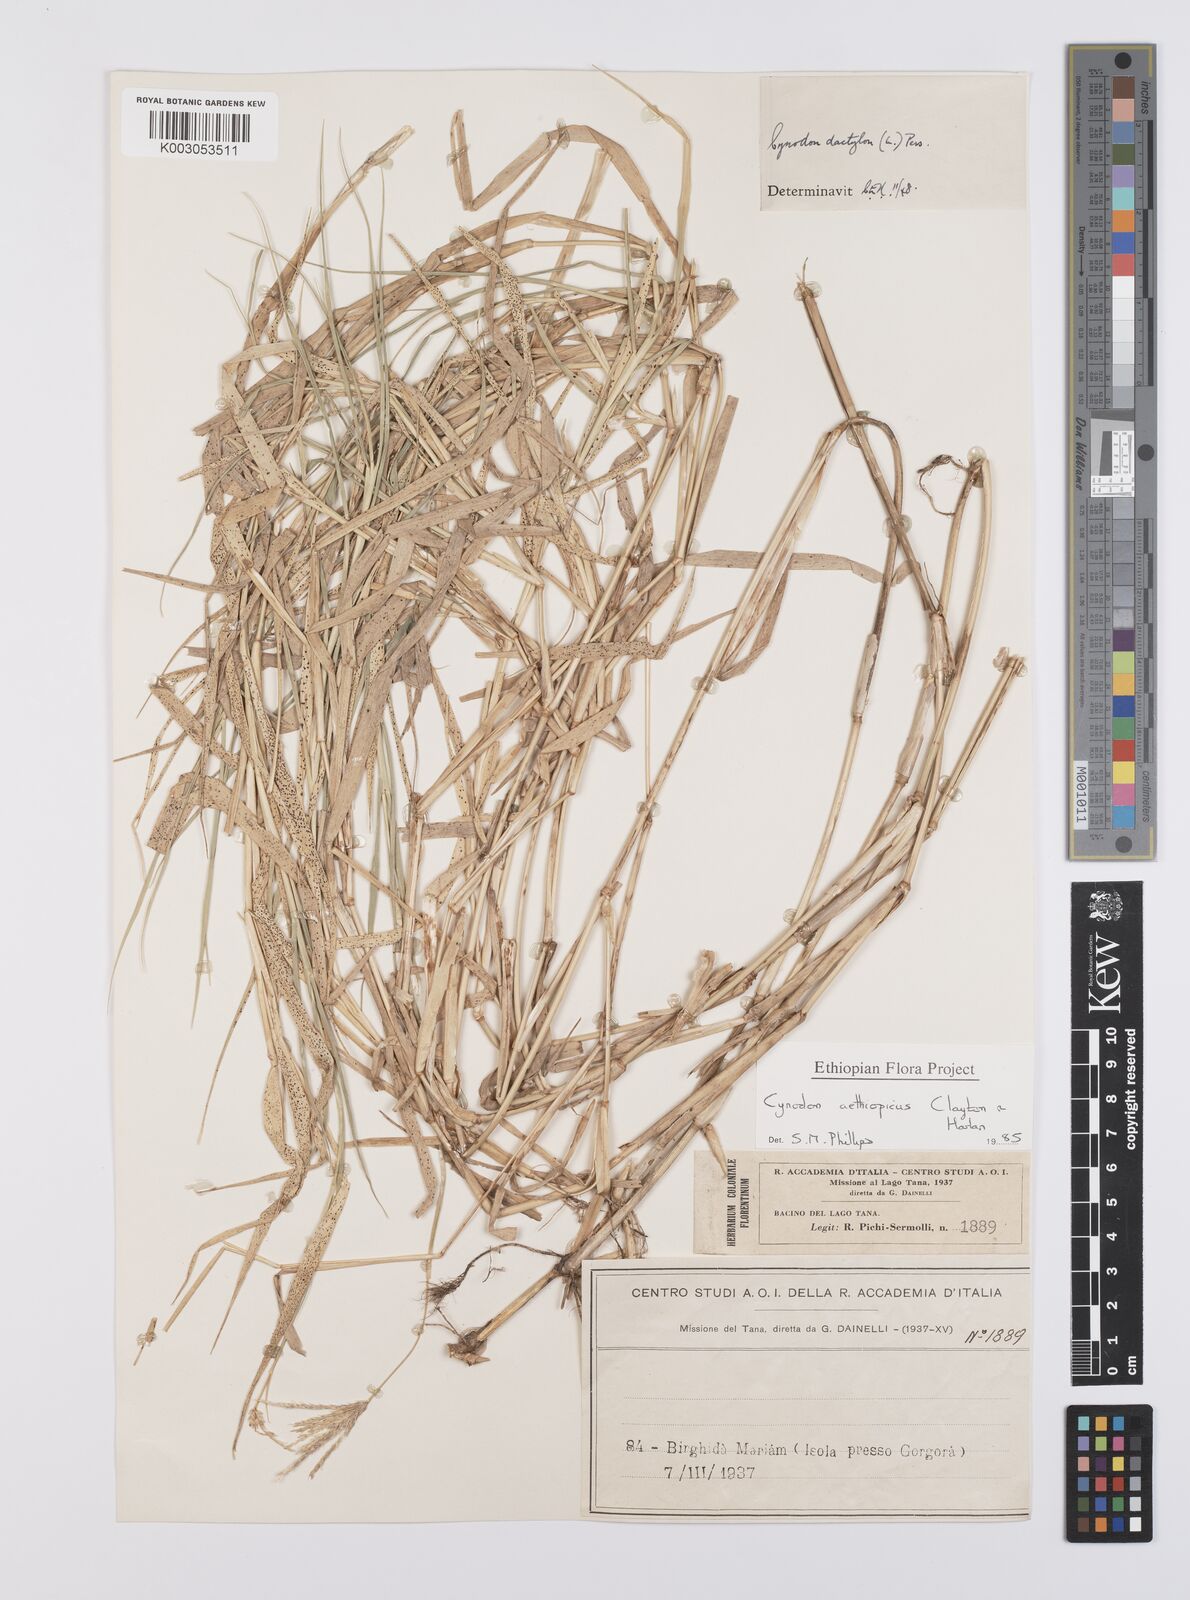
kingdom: Plantae
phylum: Tracheophyta
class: Liliopsida
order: Poales
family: Poaceae
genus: Cynodon
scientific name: Cynodon aethiopicus
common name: Ethiopian dogstooth grass
